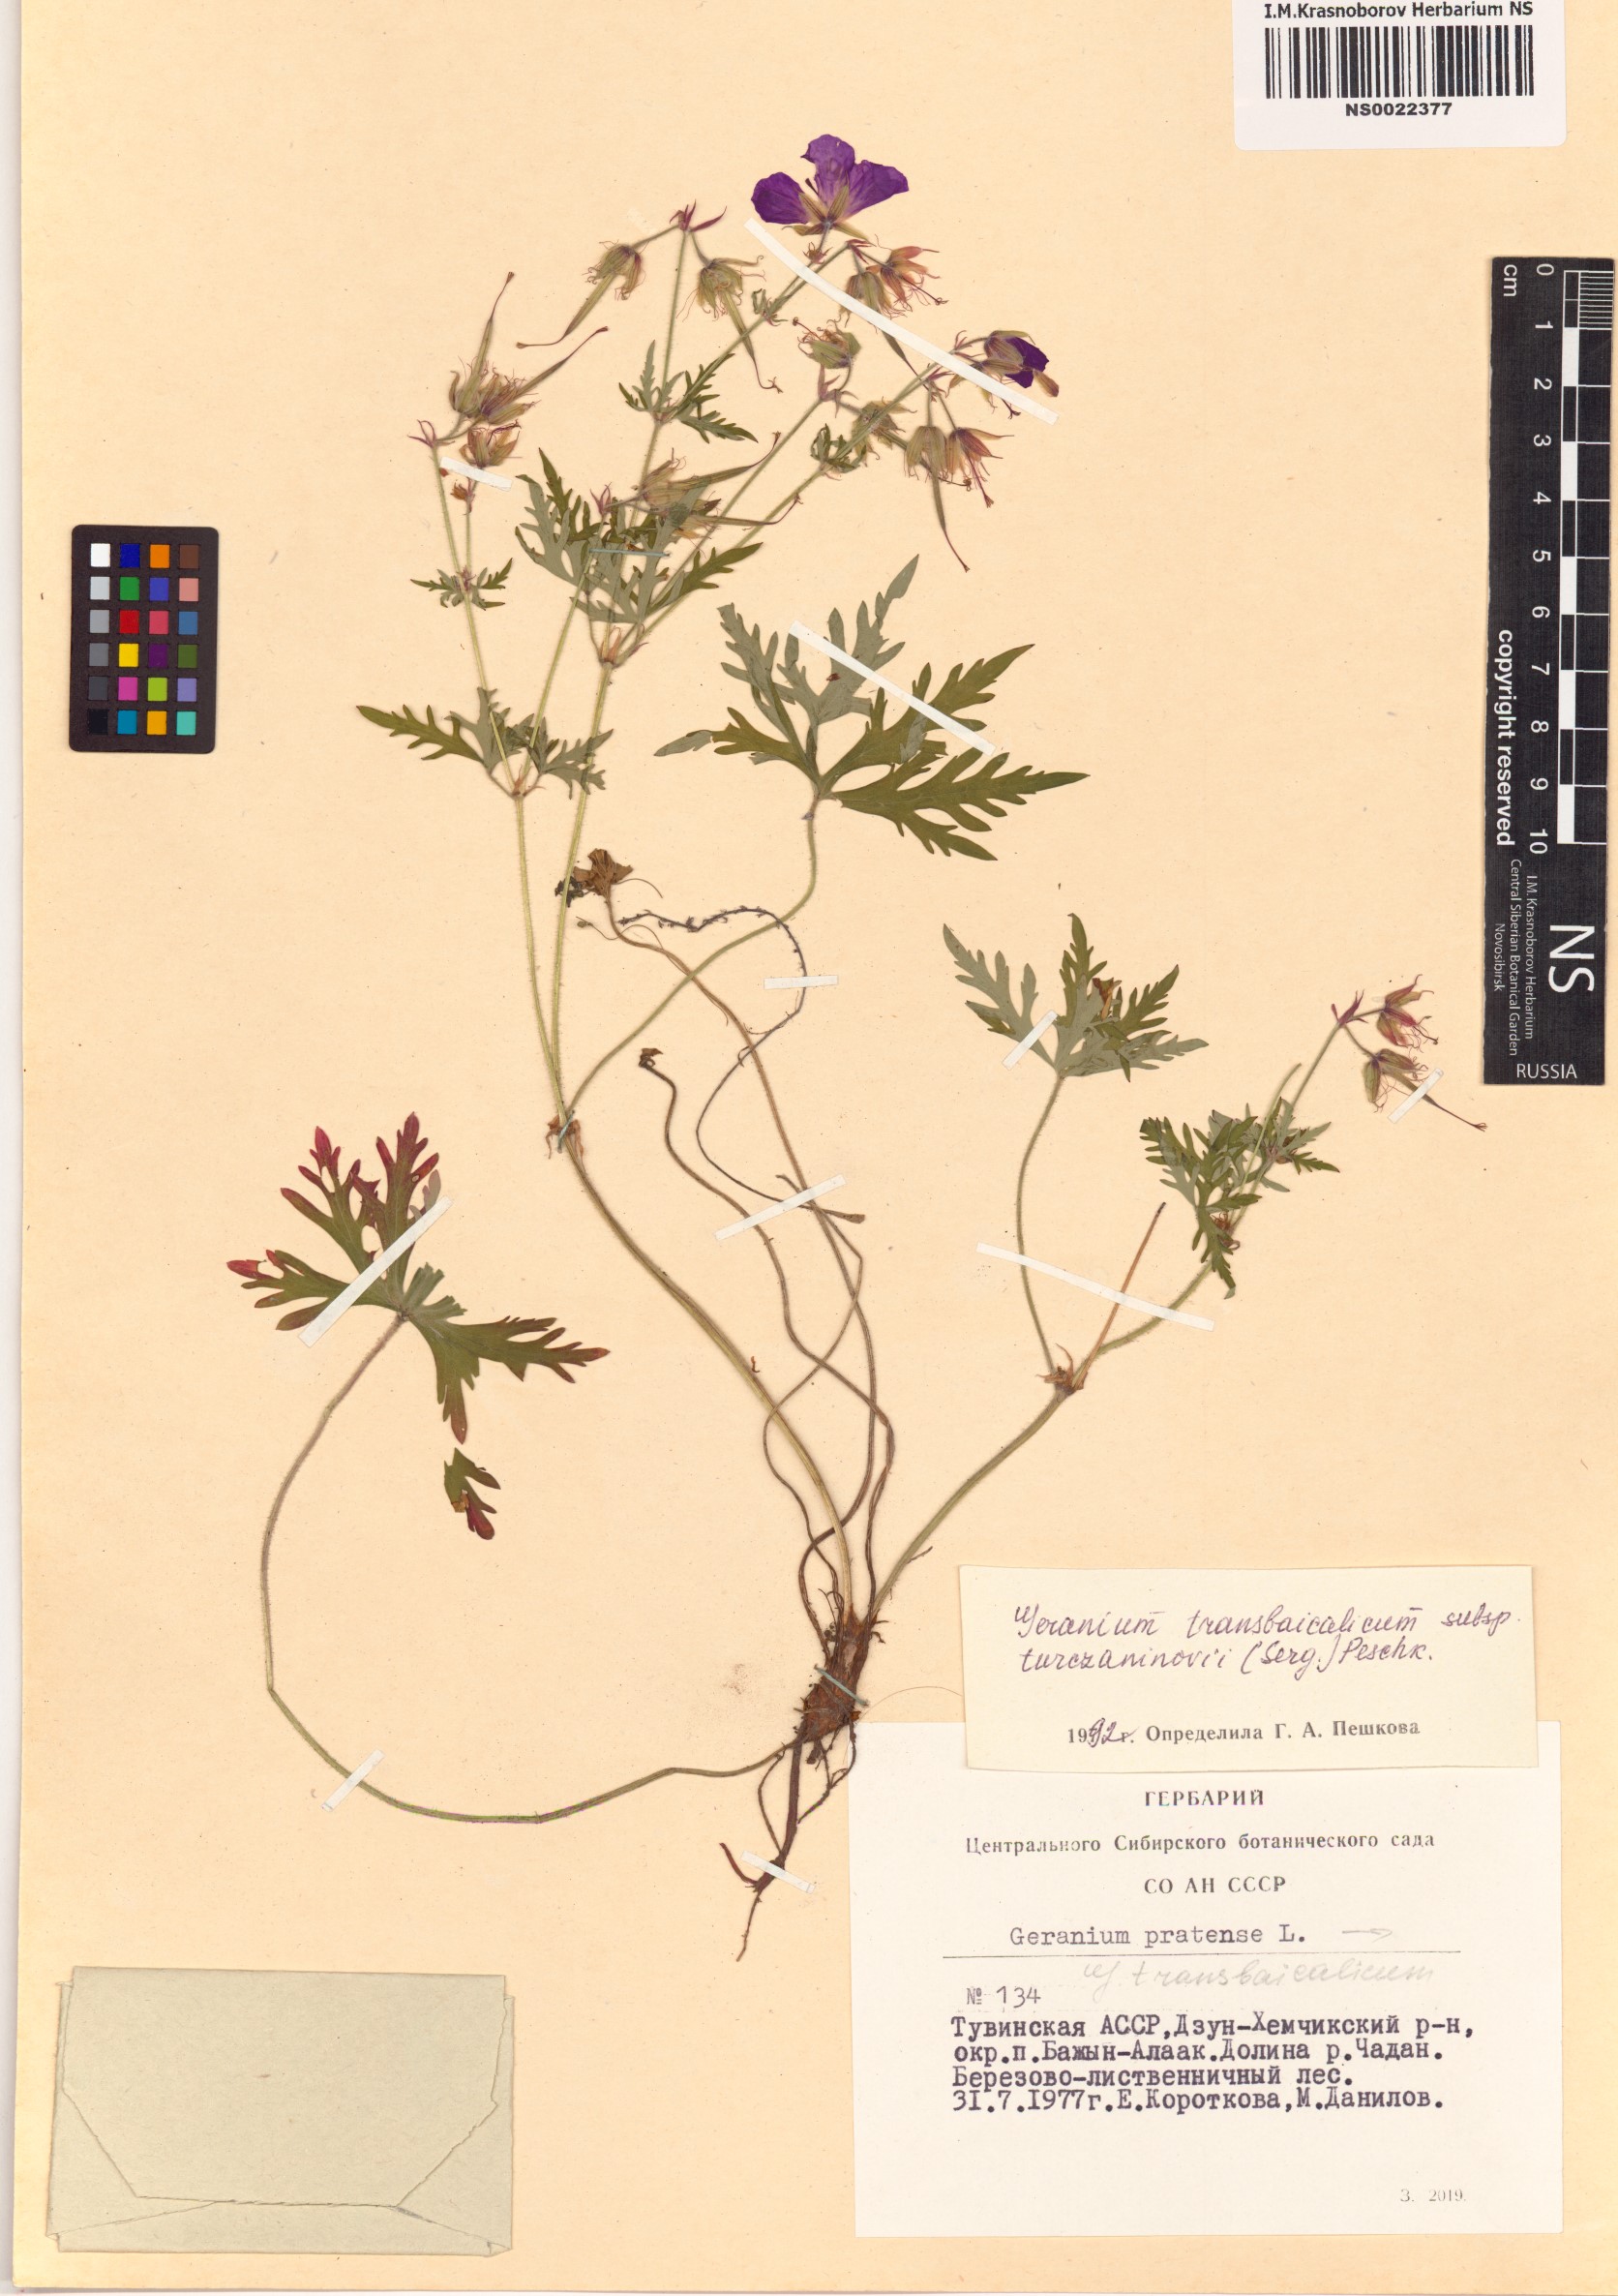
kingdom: Plantae
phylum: Tracheophyta
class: Magnoliopsida
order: Geraniales
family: Geraniaceae
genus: Geranium
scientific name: Geranium pratense
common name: Meadow crane's-bill
